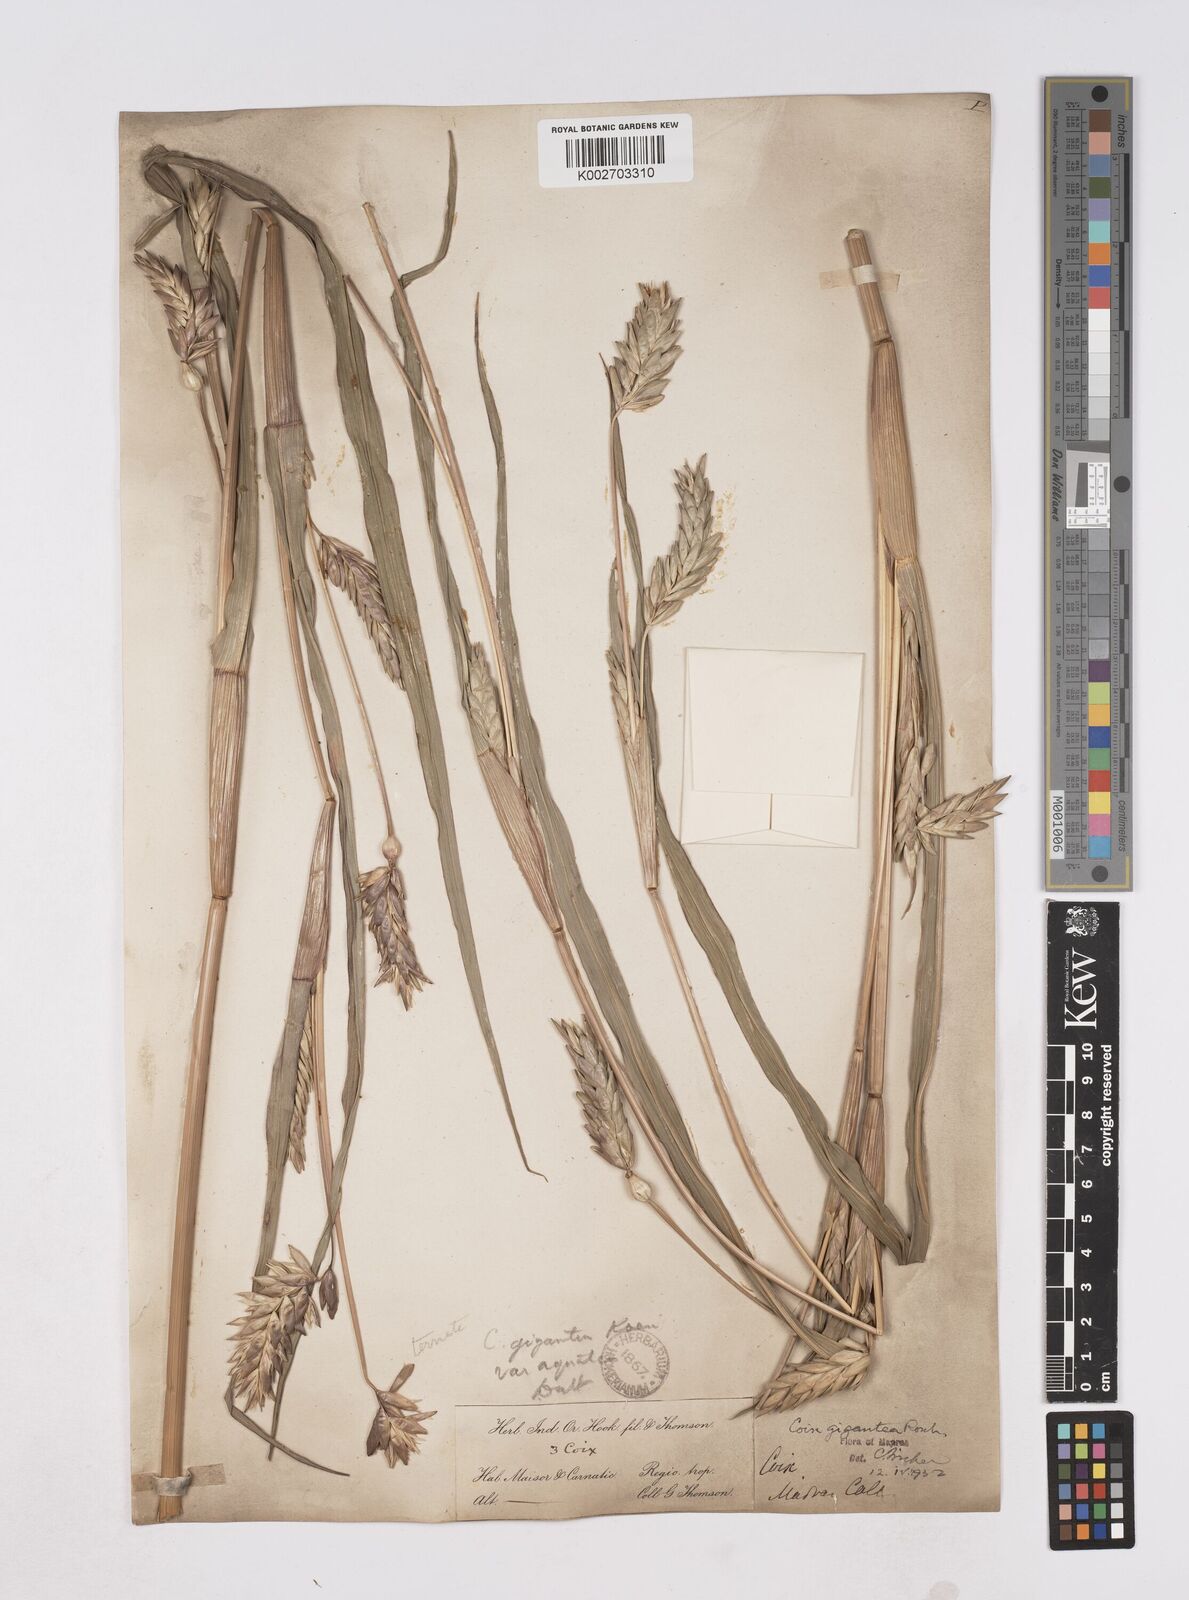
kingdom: Plantae
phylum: Tracheophyta
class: Liliopsida
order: Poales
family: Poaceae
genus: Polytoca
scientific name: Polytoca gigantea
